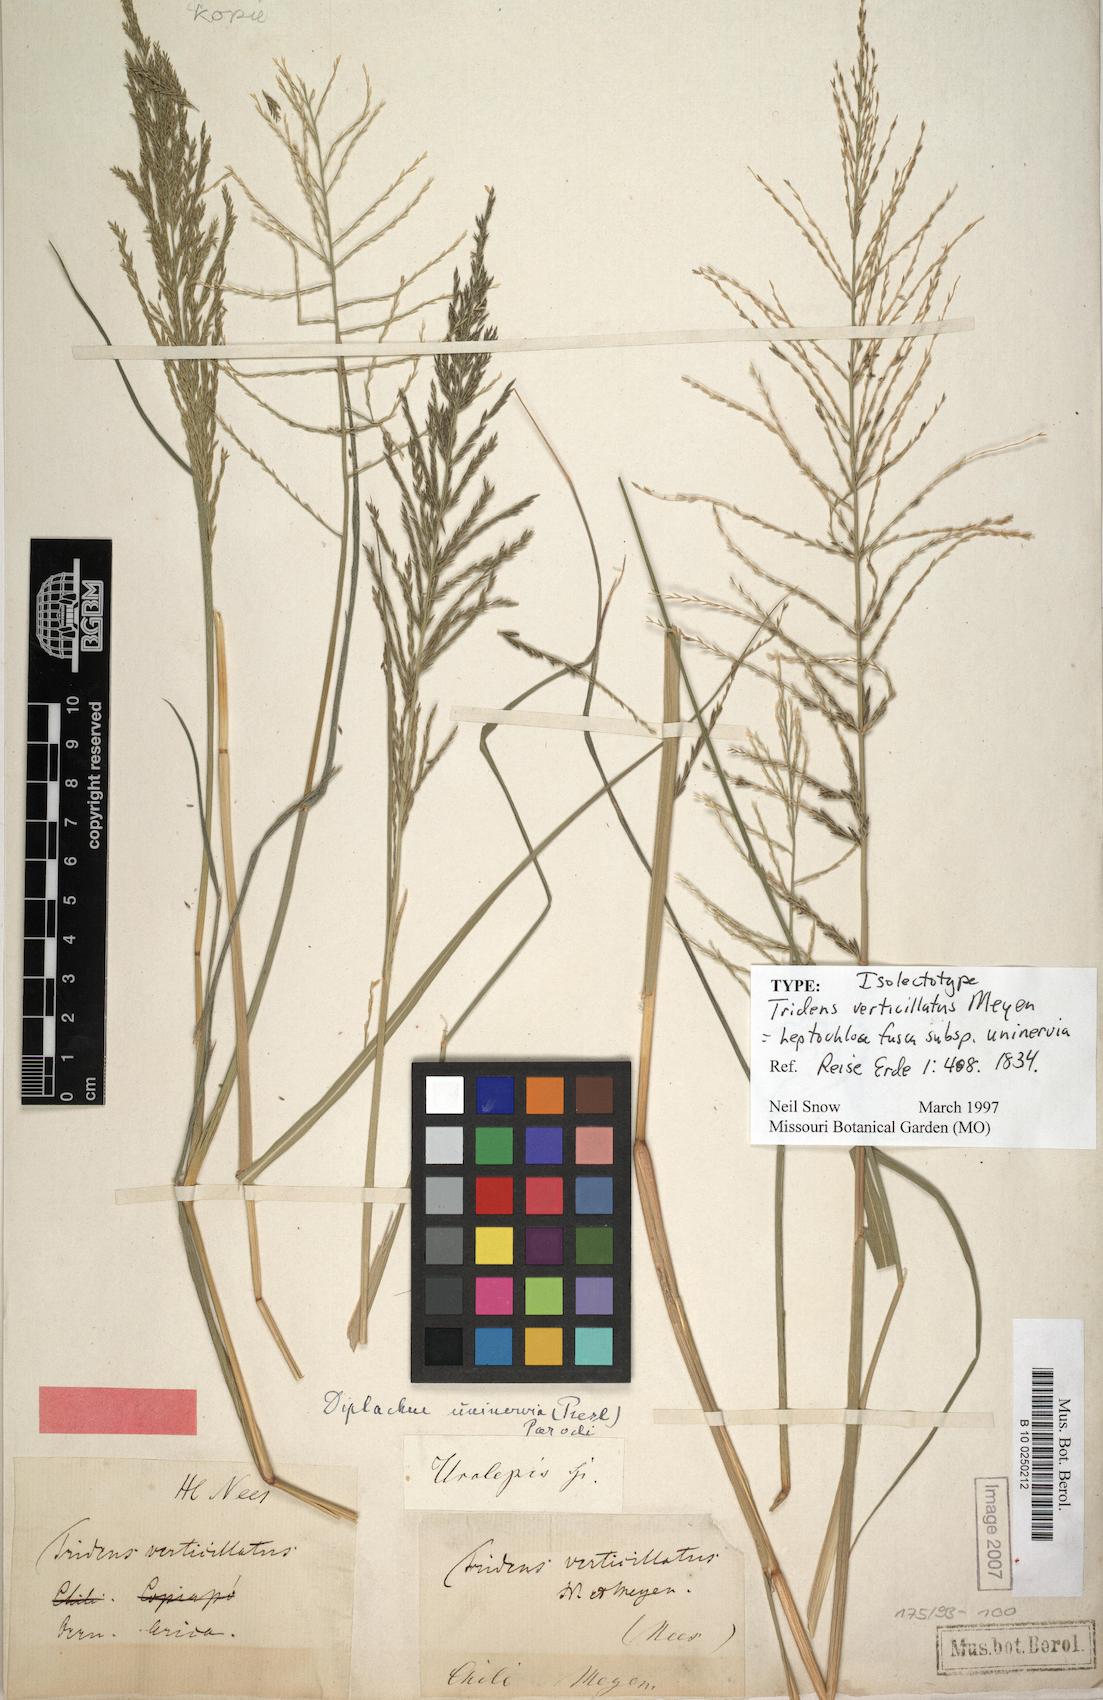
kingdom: Plantae
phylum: Tracheophyta
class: Liliopsida
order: Poales
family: Poaceae
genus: Diplachne
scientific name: Diplachne fusca
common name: Brown beetle grass
